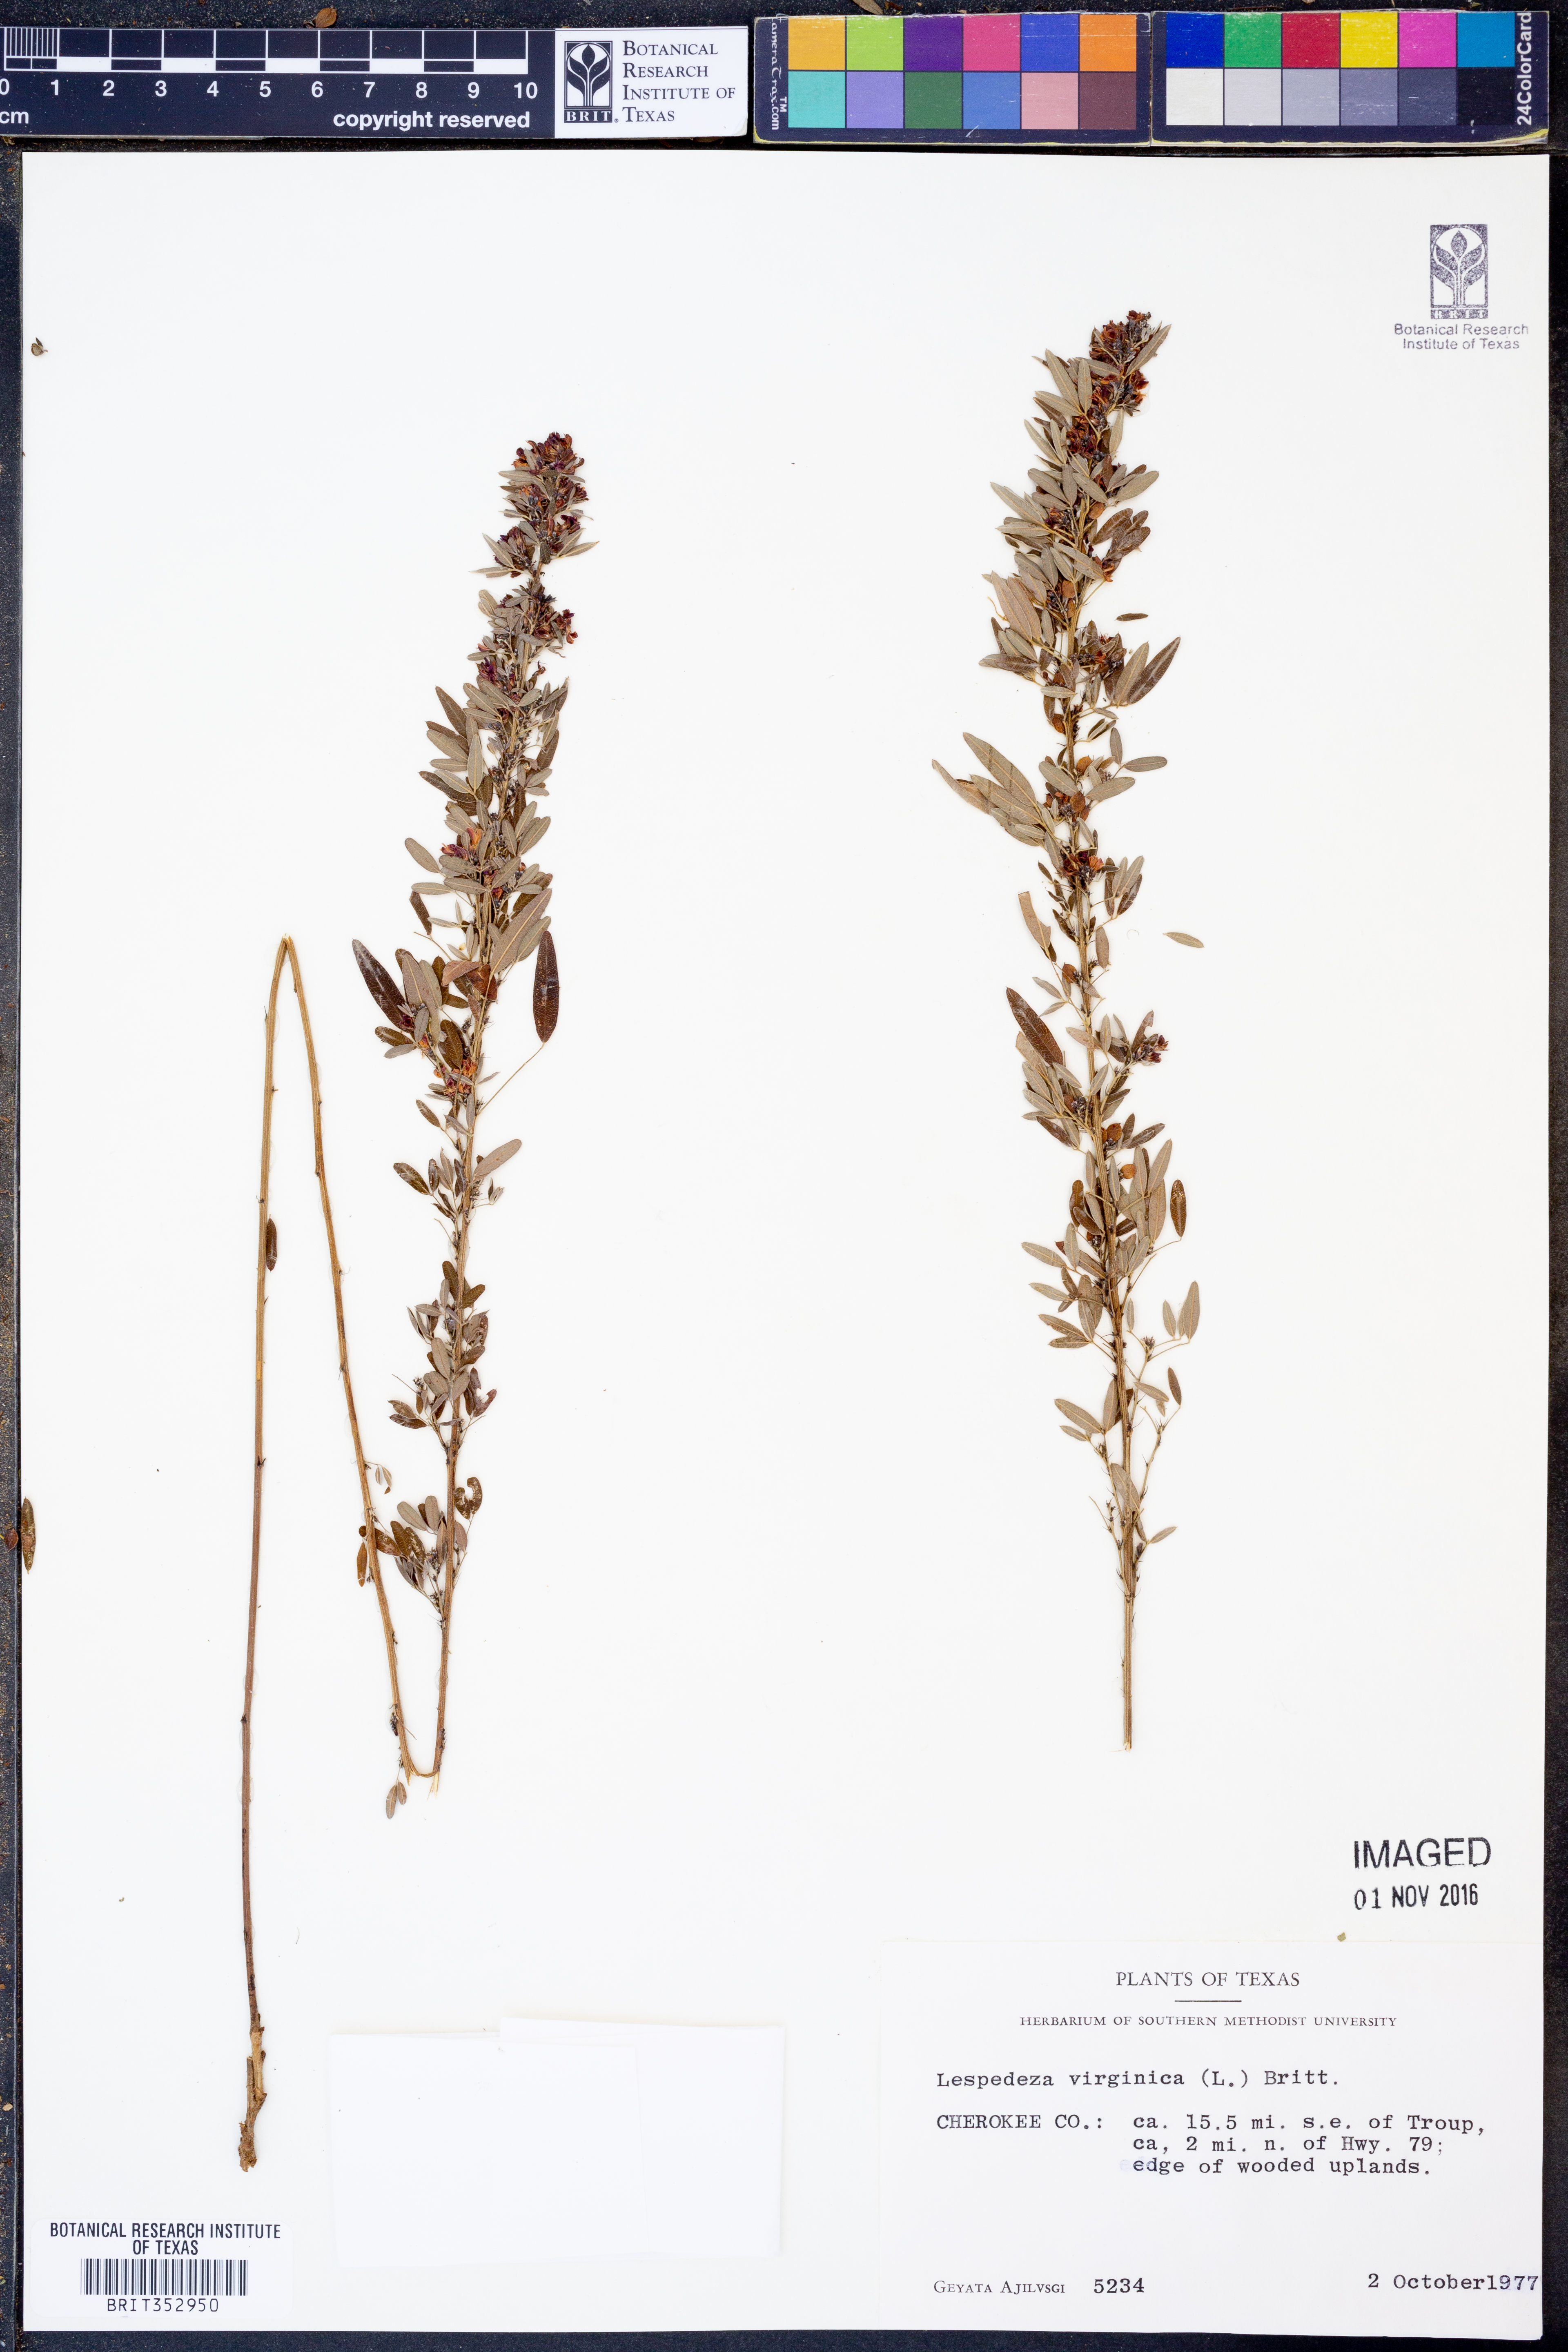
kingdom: Plantae
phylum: Tracheophyta
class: Magnoliopsida
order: Fabales
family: Fabaceae
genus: Lespedeza
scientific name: Lespedeza virginica
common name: Slender bush-clover
